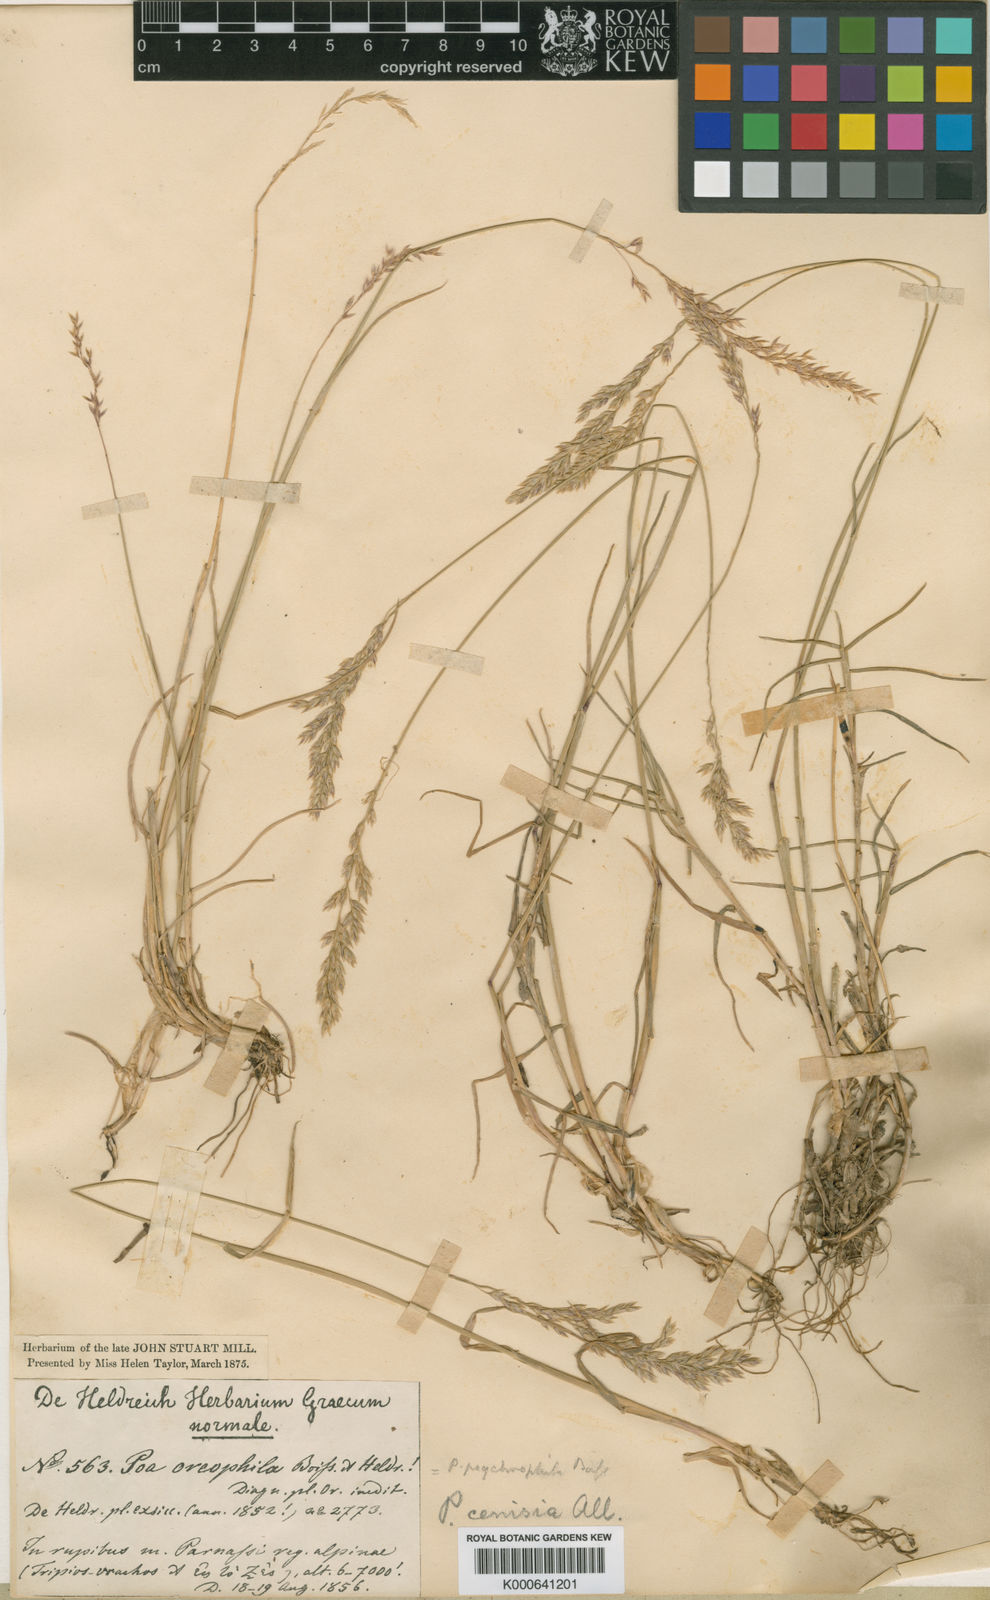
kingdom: Plantae
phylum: Tracheophyta
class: Liliopsida
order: Poales
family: Poaceae
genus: Poa
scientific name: Poa cenisia
